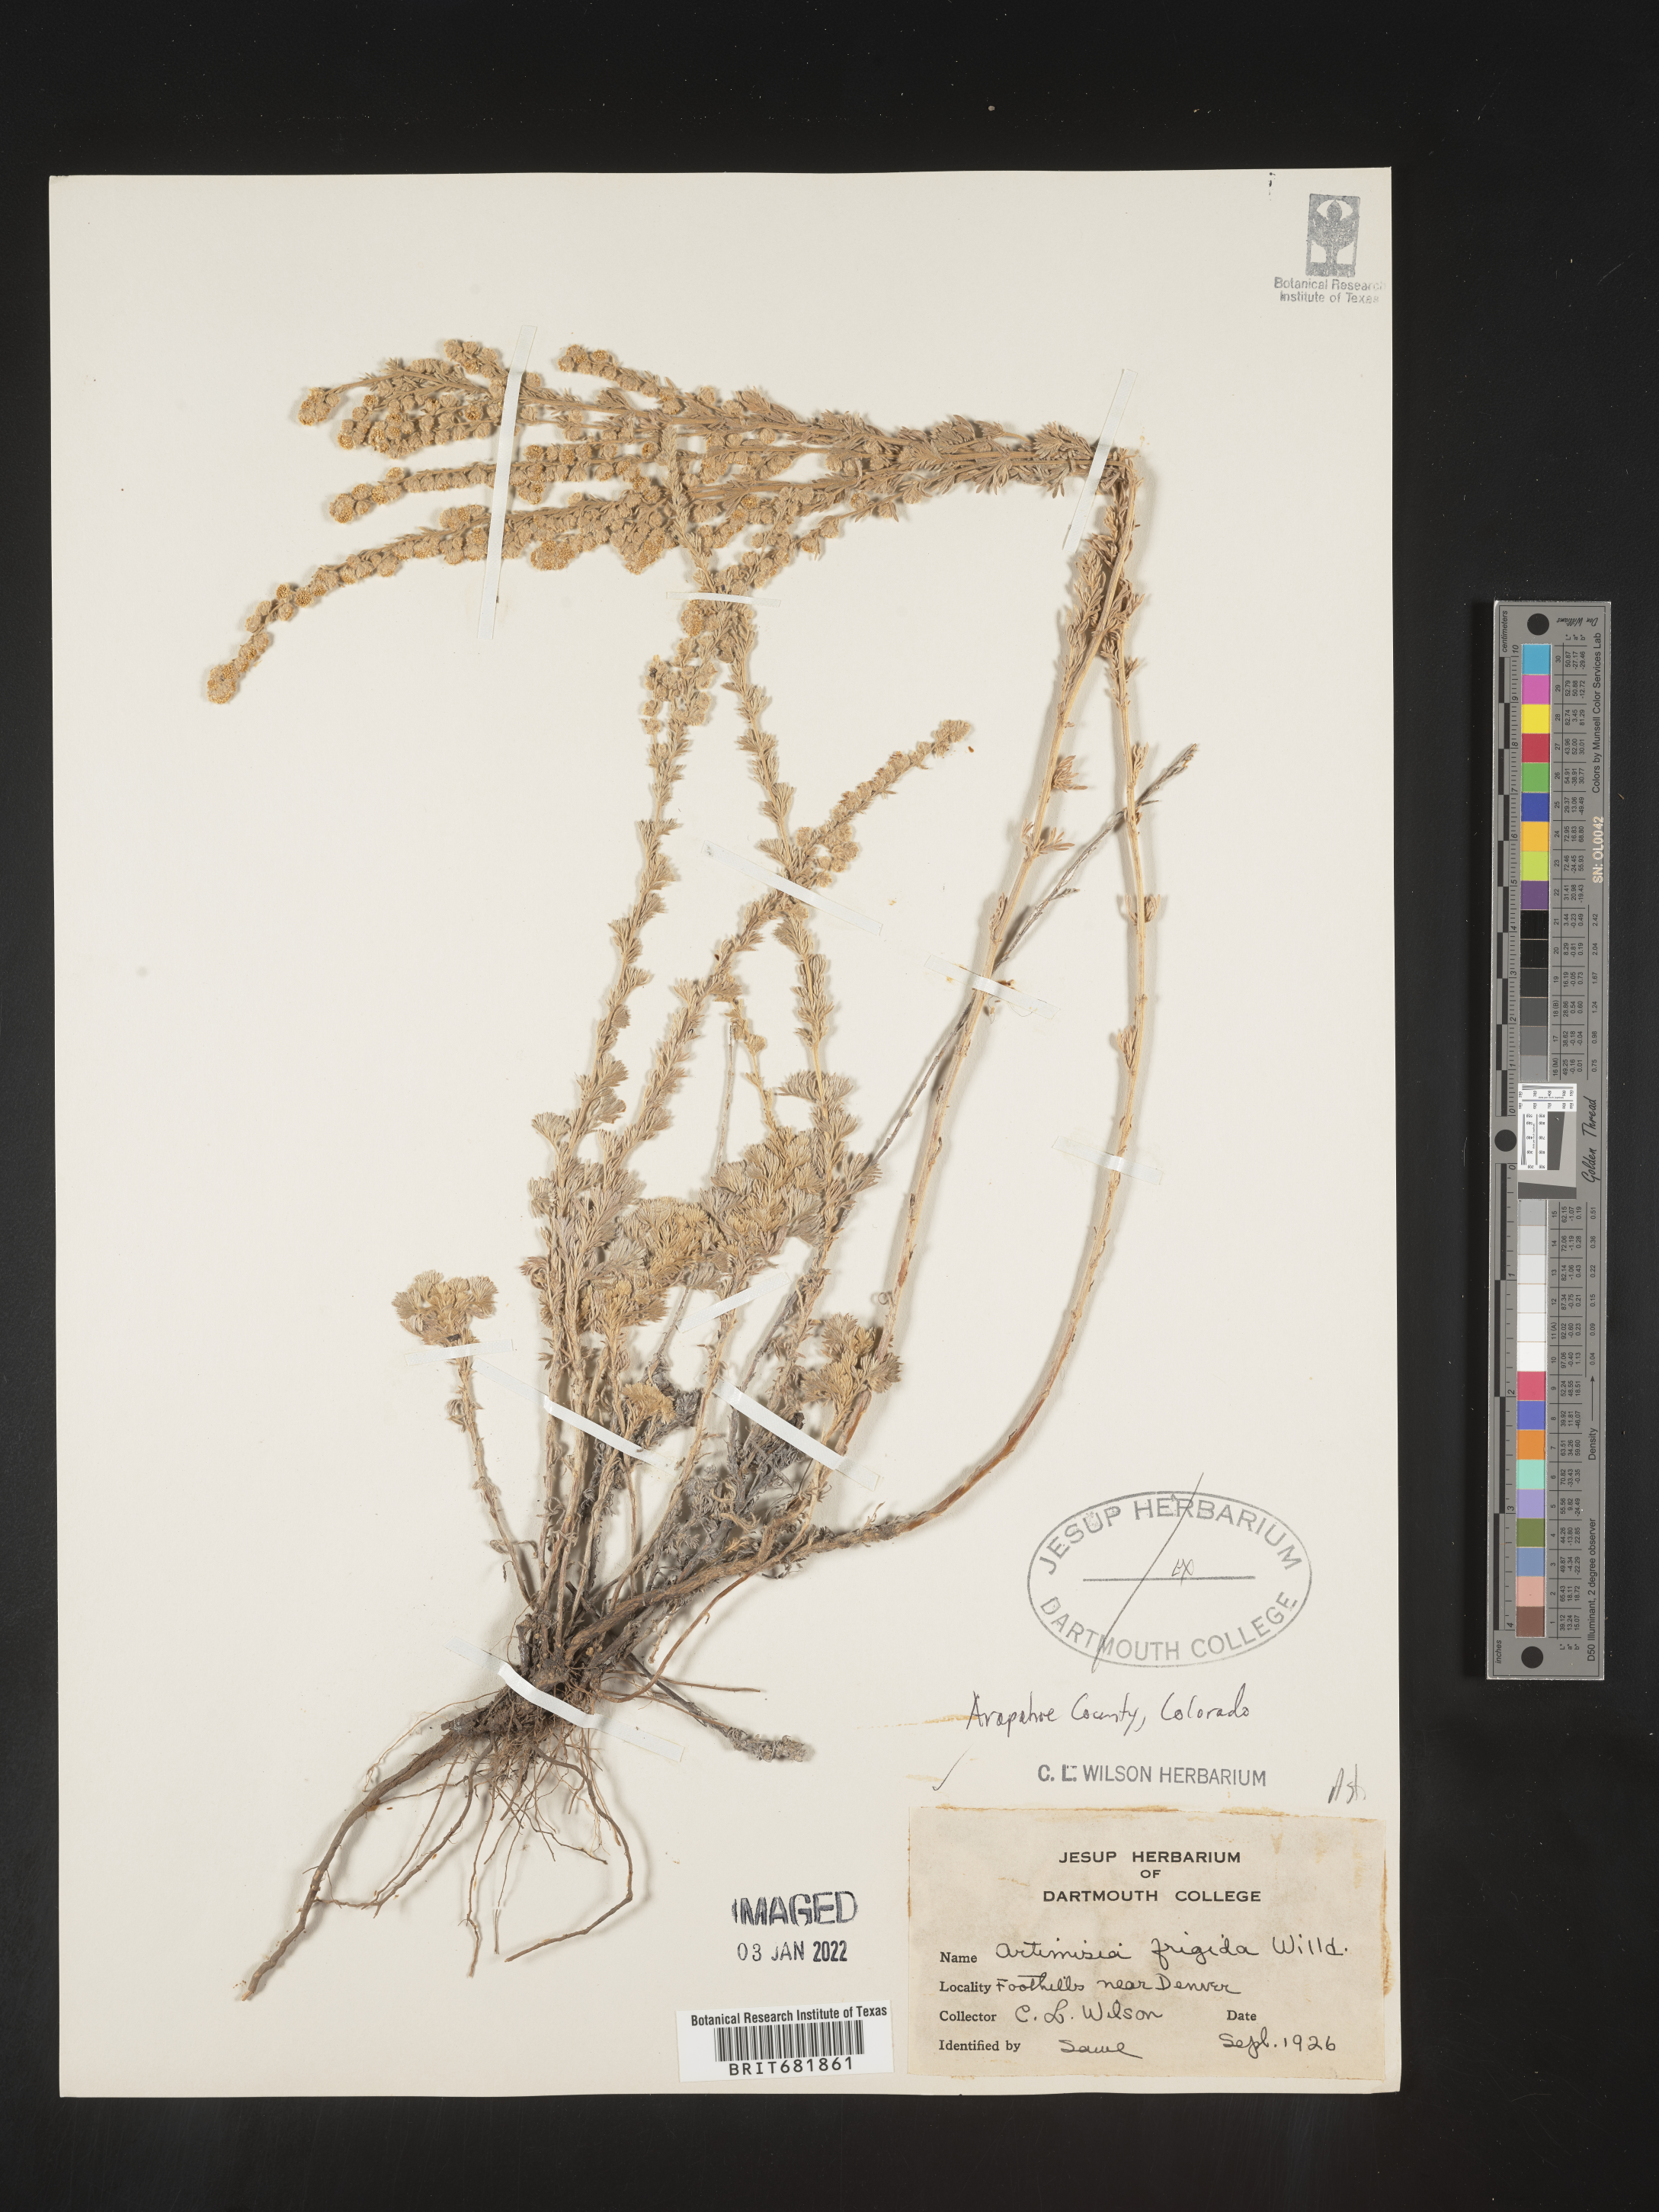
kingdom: Plantae
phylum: Tracheophyta
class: Magnoliopsida
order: Asterales
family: Asteraceae
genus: Artemisia
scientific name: Artemisia frigida
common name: Prairie sagewort
